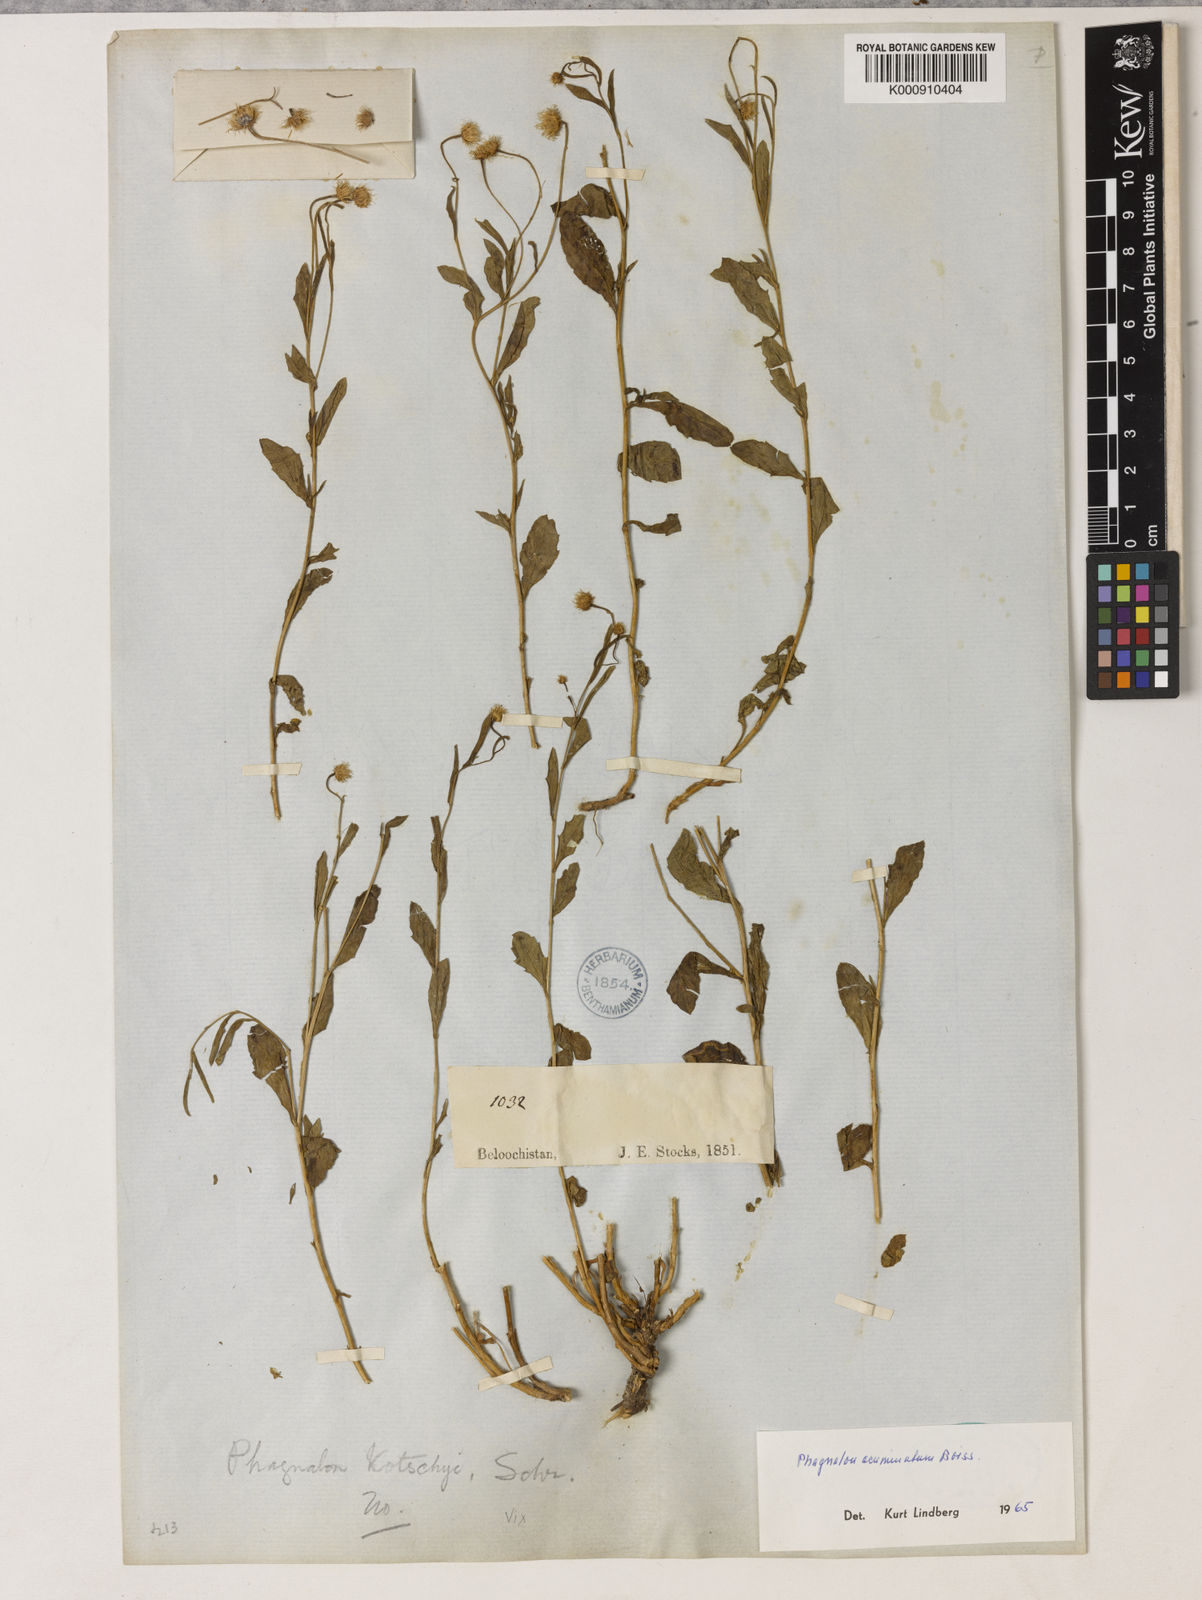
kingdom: Plantae
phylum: Tracheophyta
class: Magnoliopsida
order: Asterales
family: Asteraceae
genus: Phagnalon
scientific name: Phagnalon acuminatum
